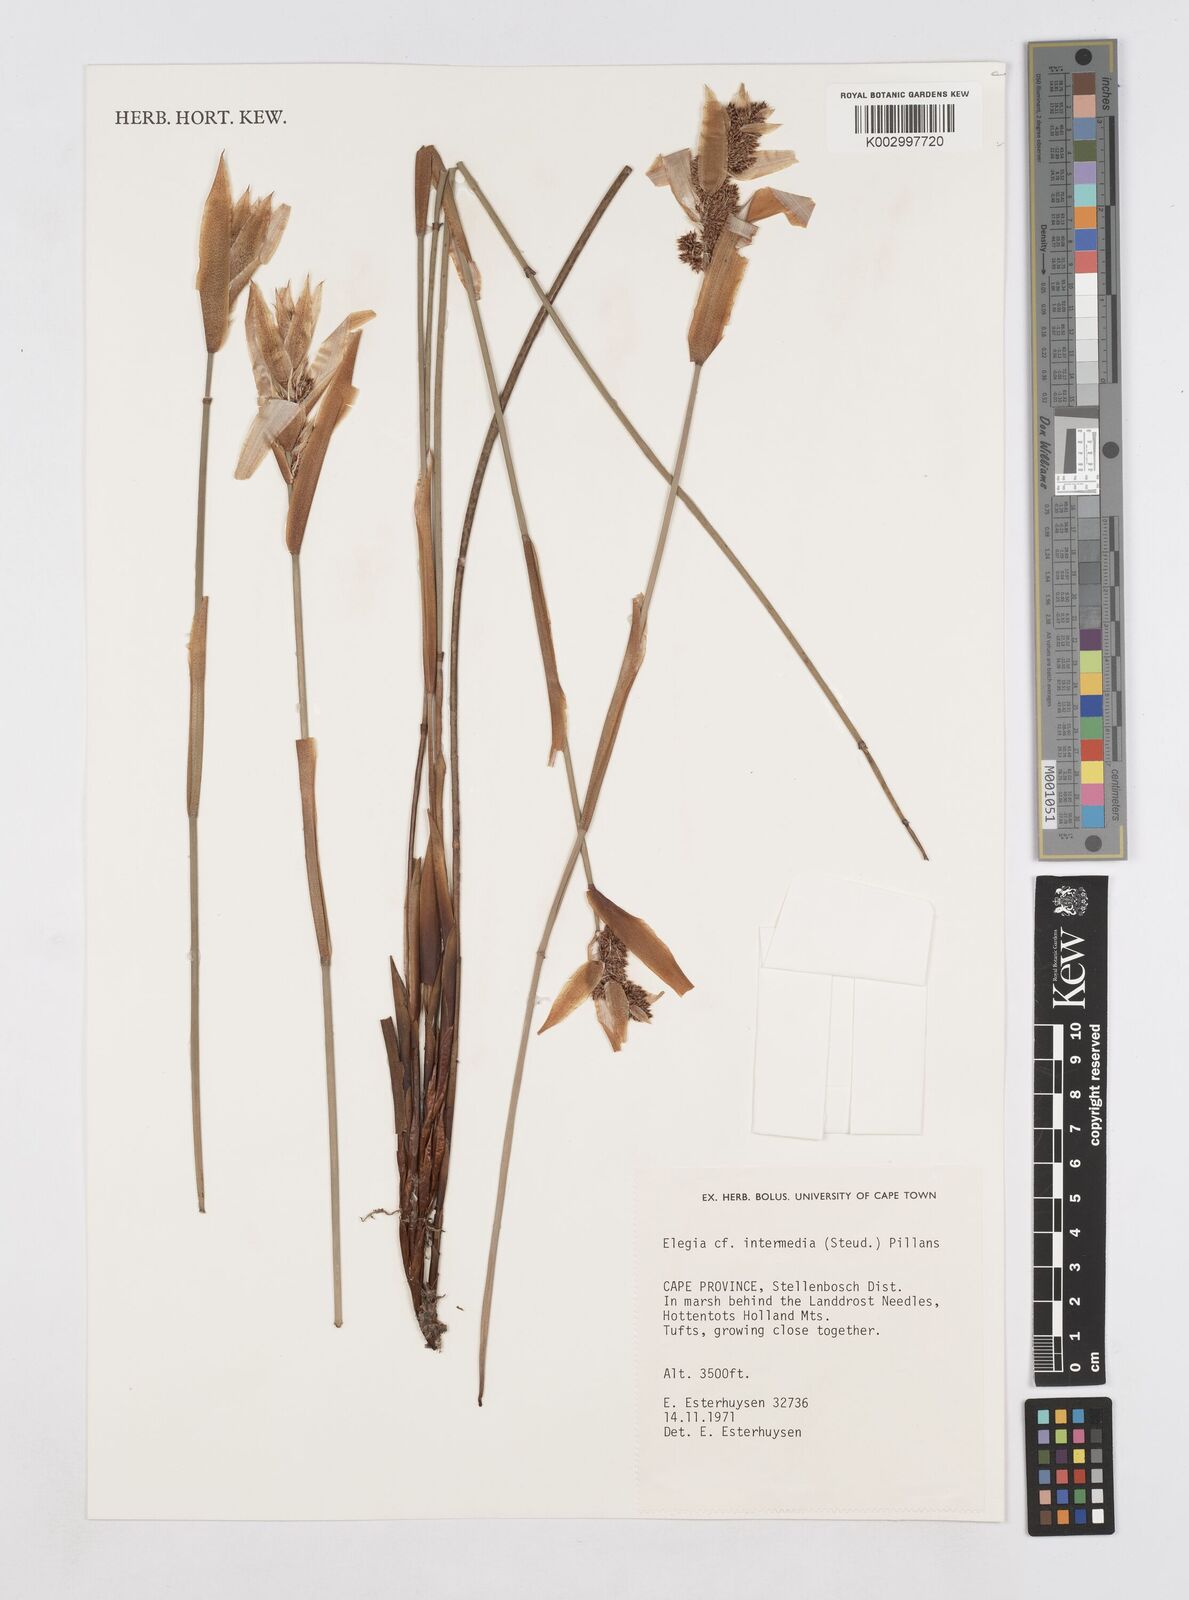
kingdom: Plantae
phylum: Tracheophyta
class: Liliopsida
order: Poales
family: Restionaceae
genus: Elegia
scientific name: Elegia intermedia
